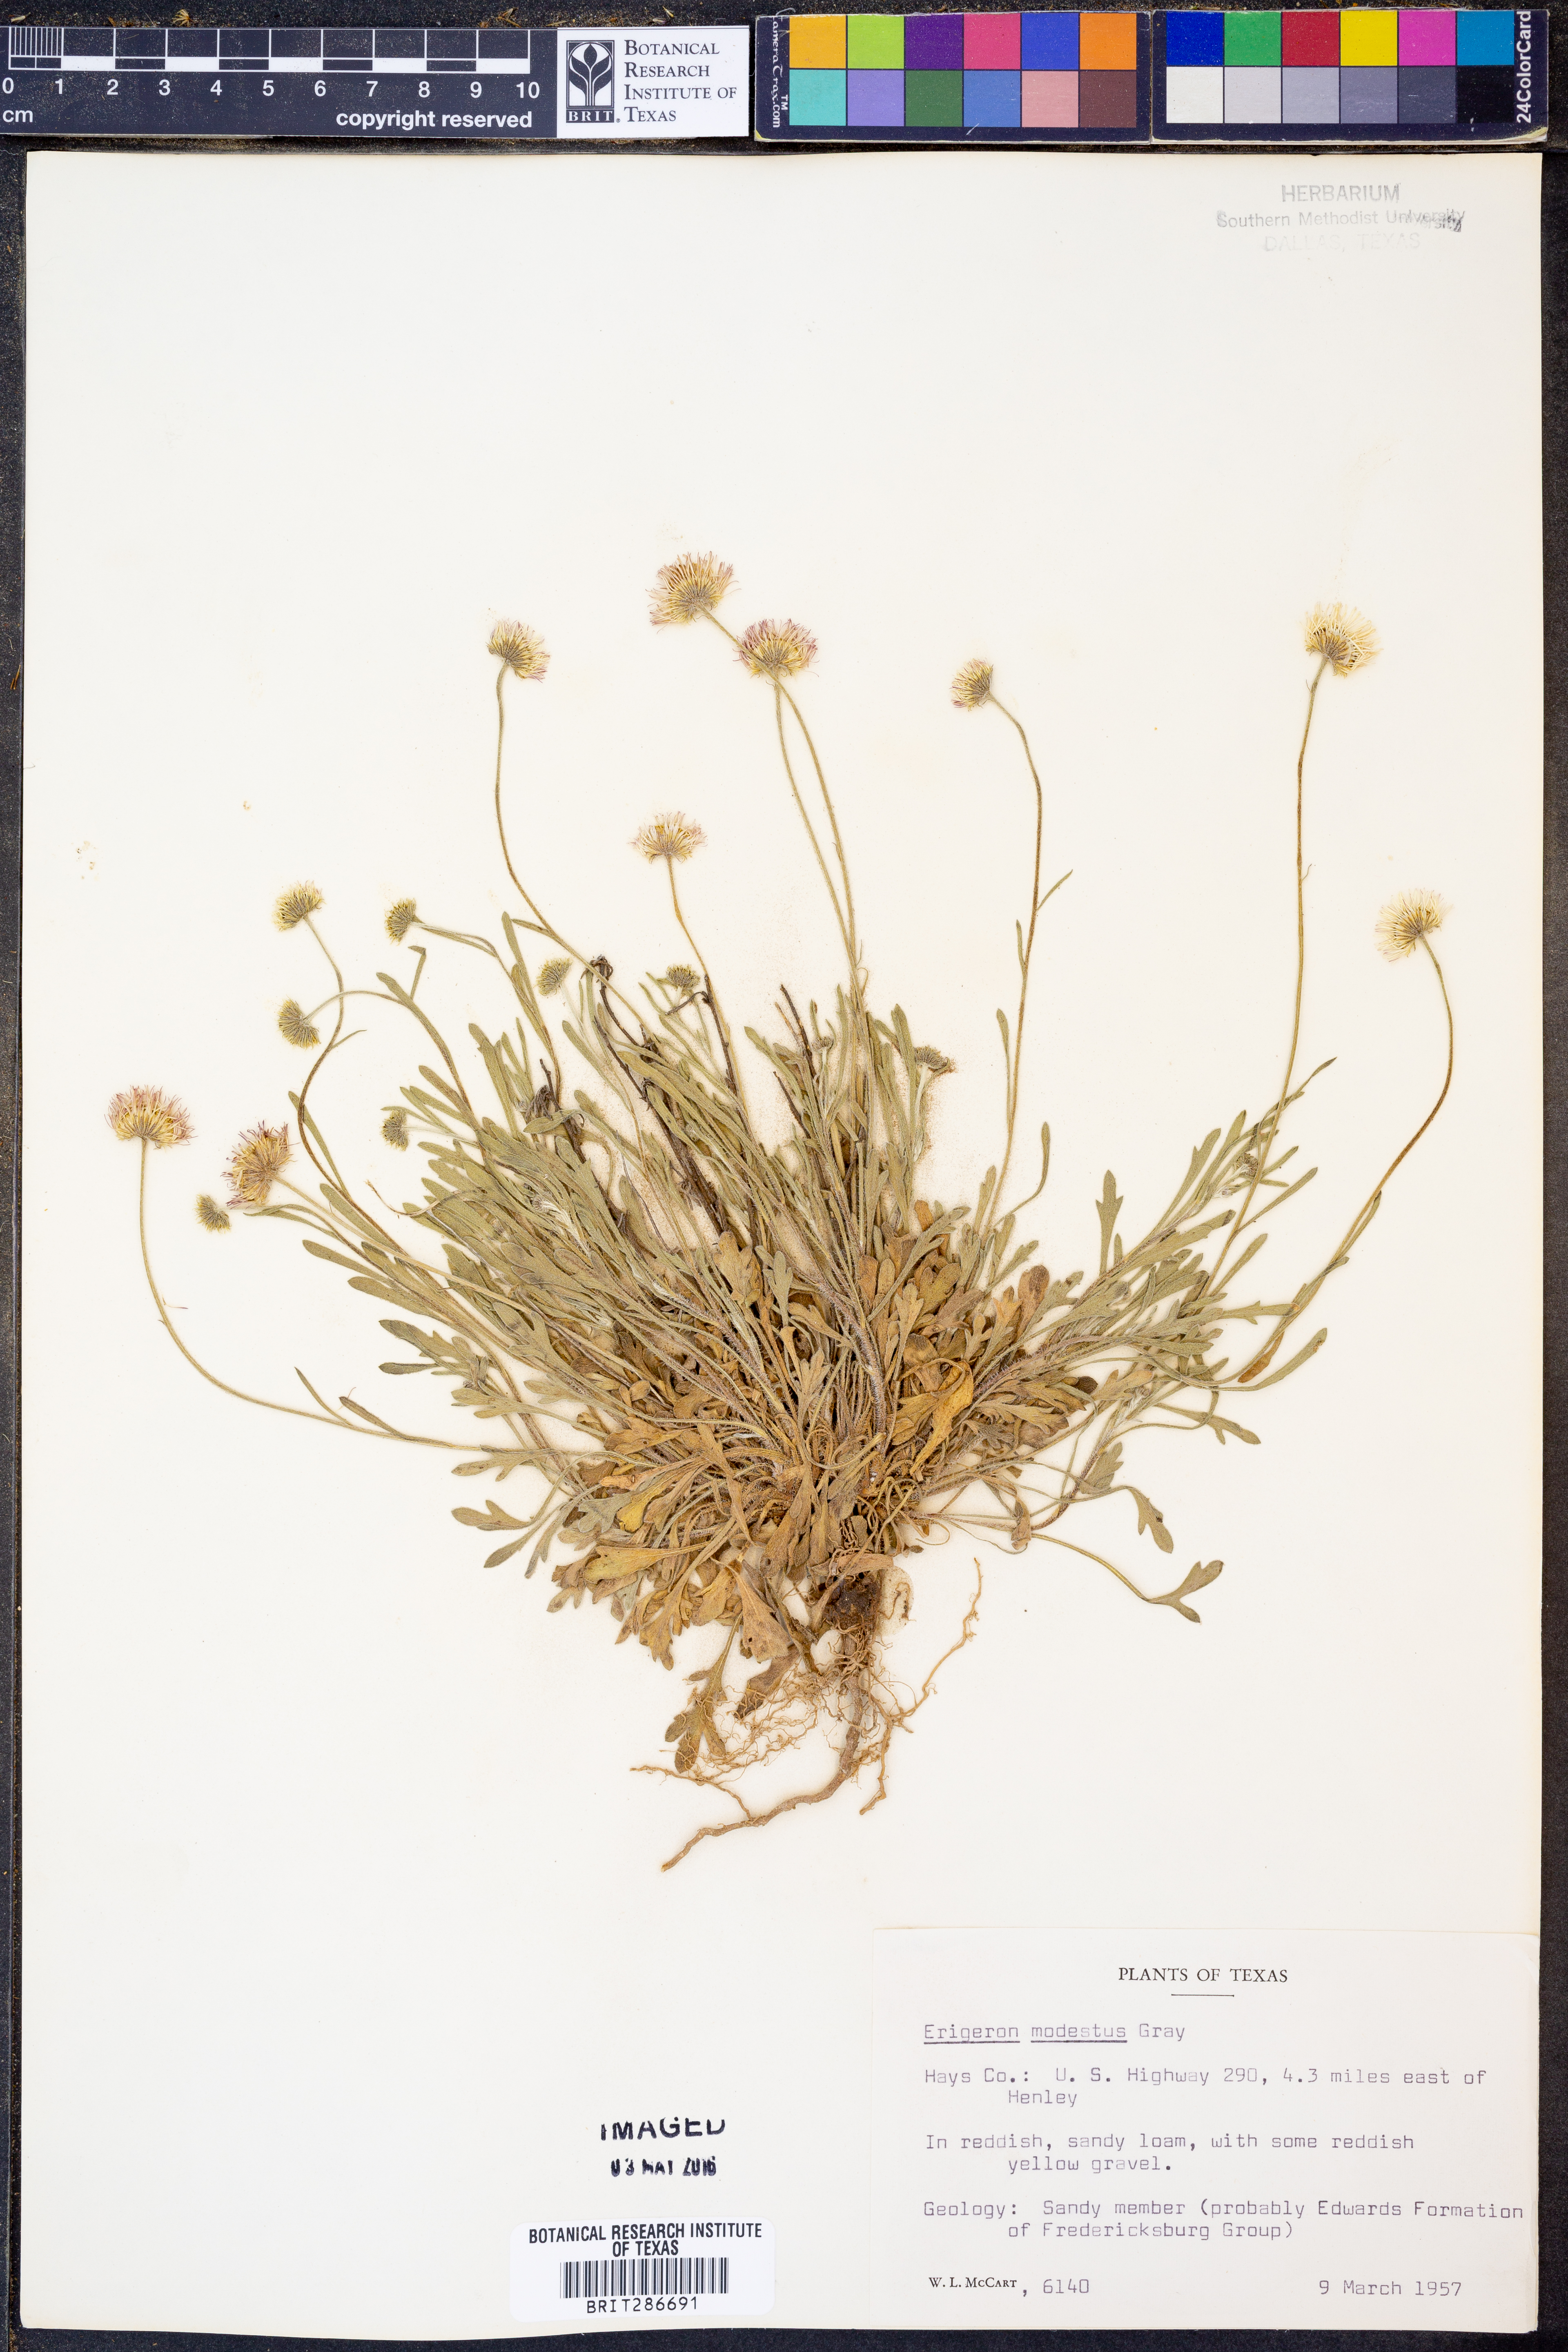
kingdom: Plantae
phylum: Tracheophyta
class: Magnoliopsida
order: Asterales
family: Asteraceae
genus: Erigeron
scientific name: Erigeron modestus
